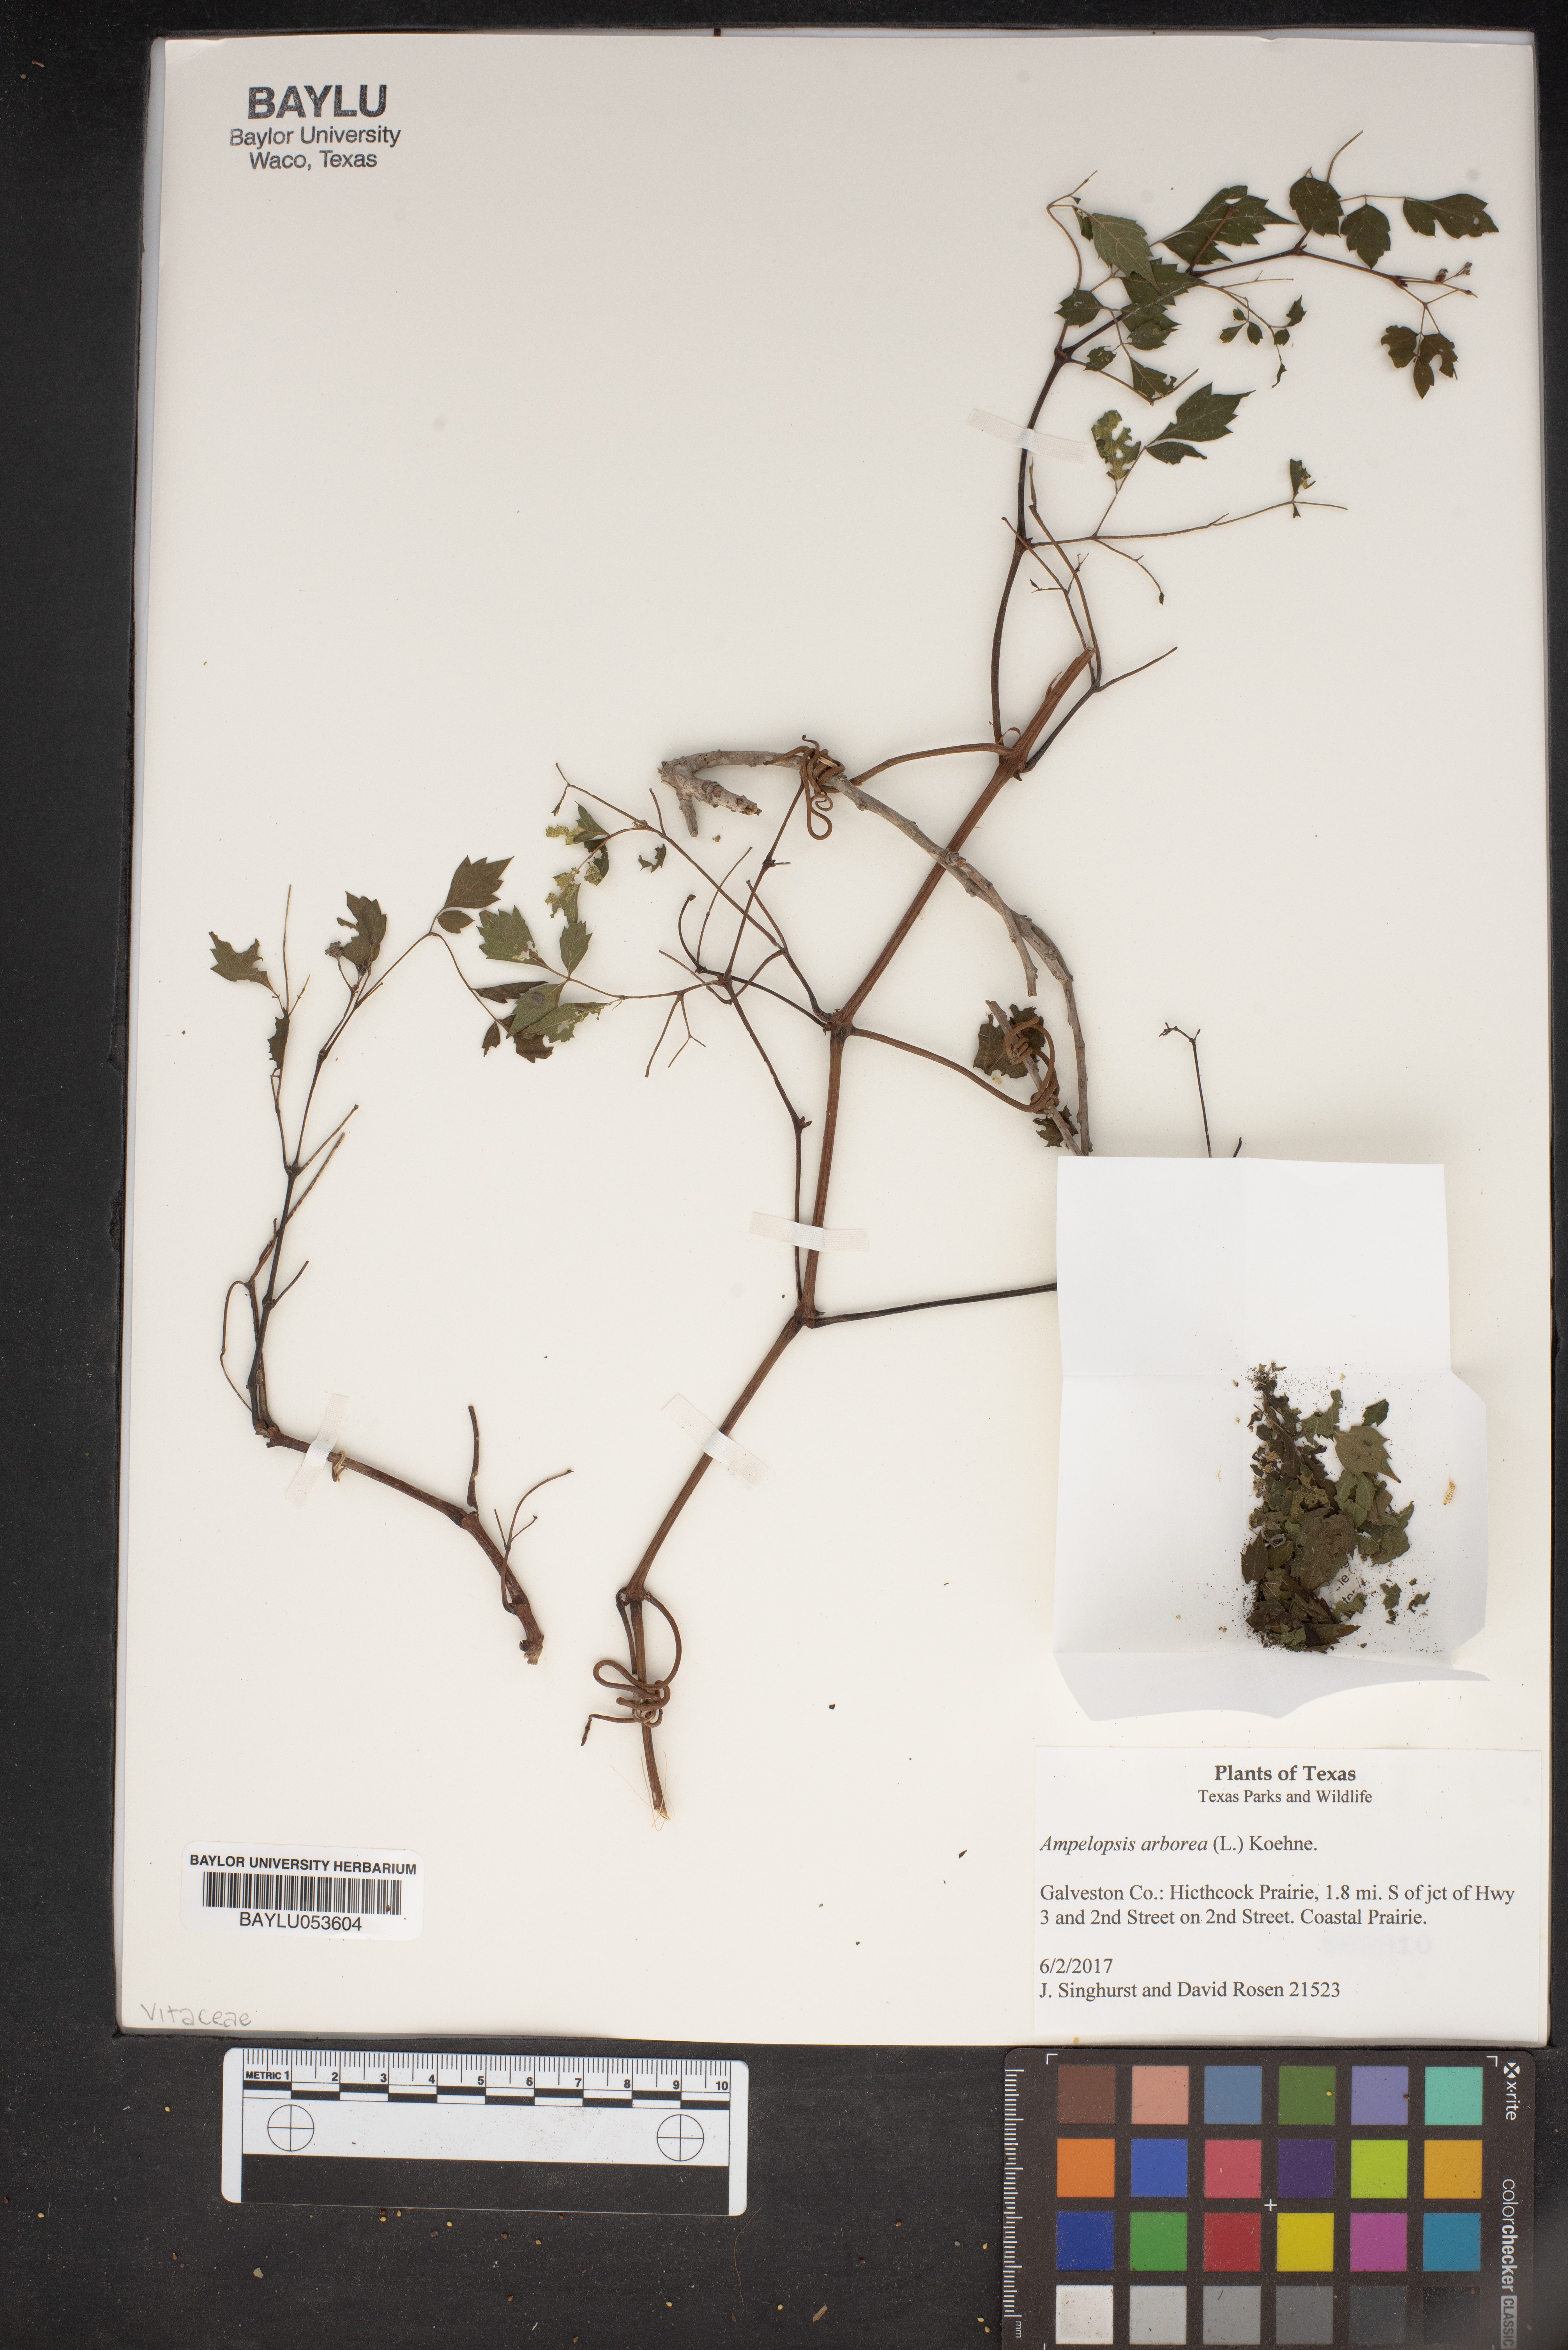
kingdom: Plantae
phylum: Tracheophyta
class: Magnoliopsida
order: Vitales
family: Vitaceae
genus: Nekemias
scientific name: Nekemias arborea
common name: Peppervine
